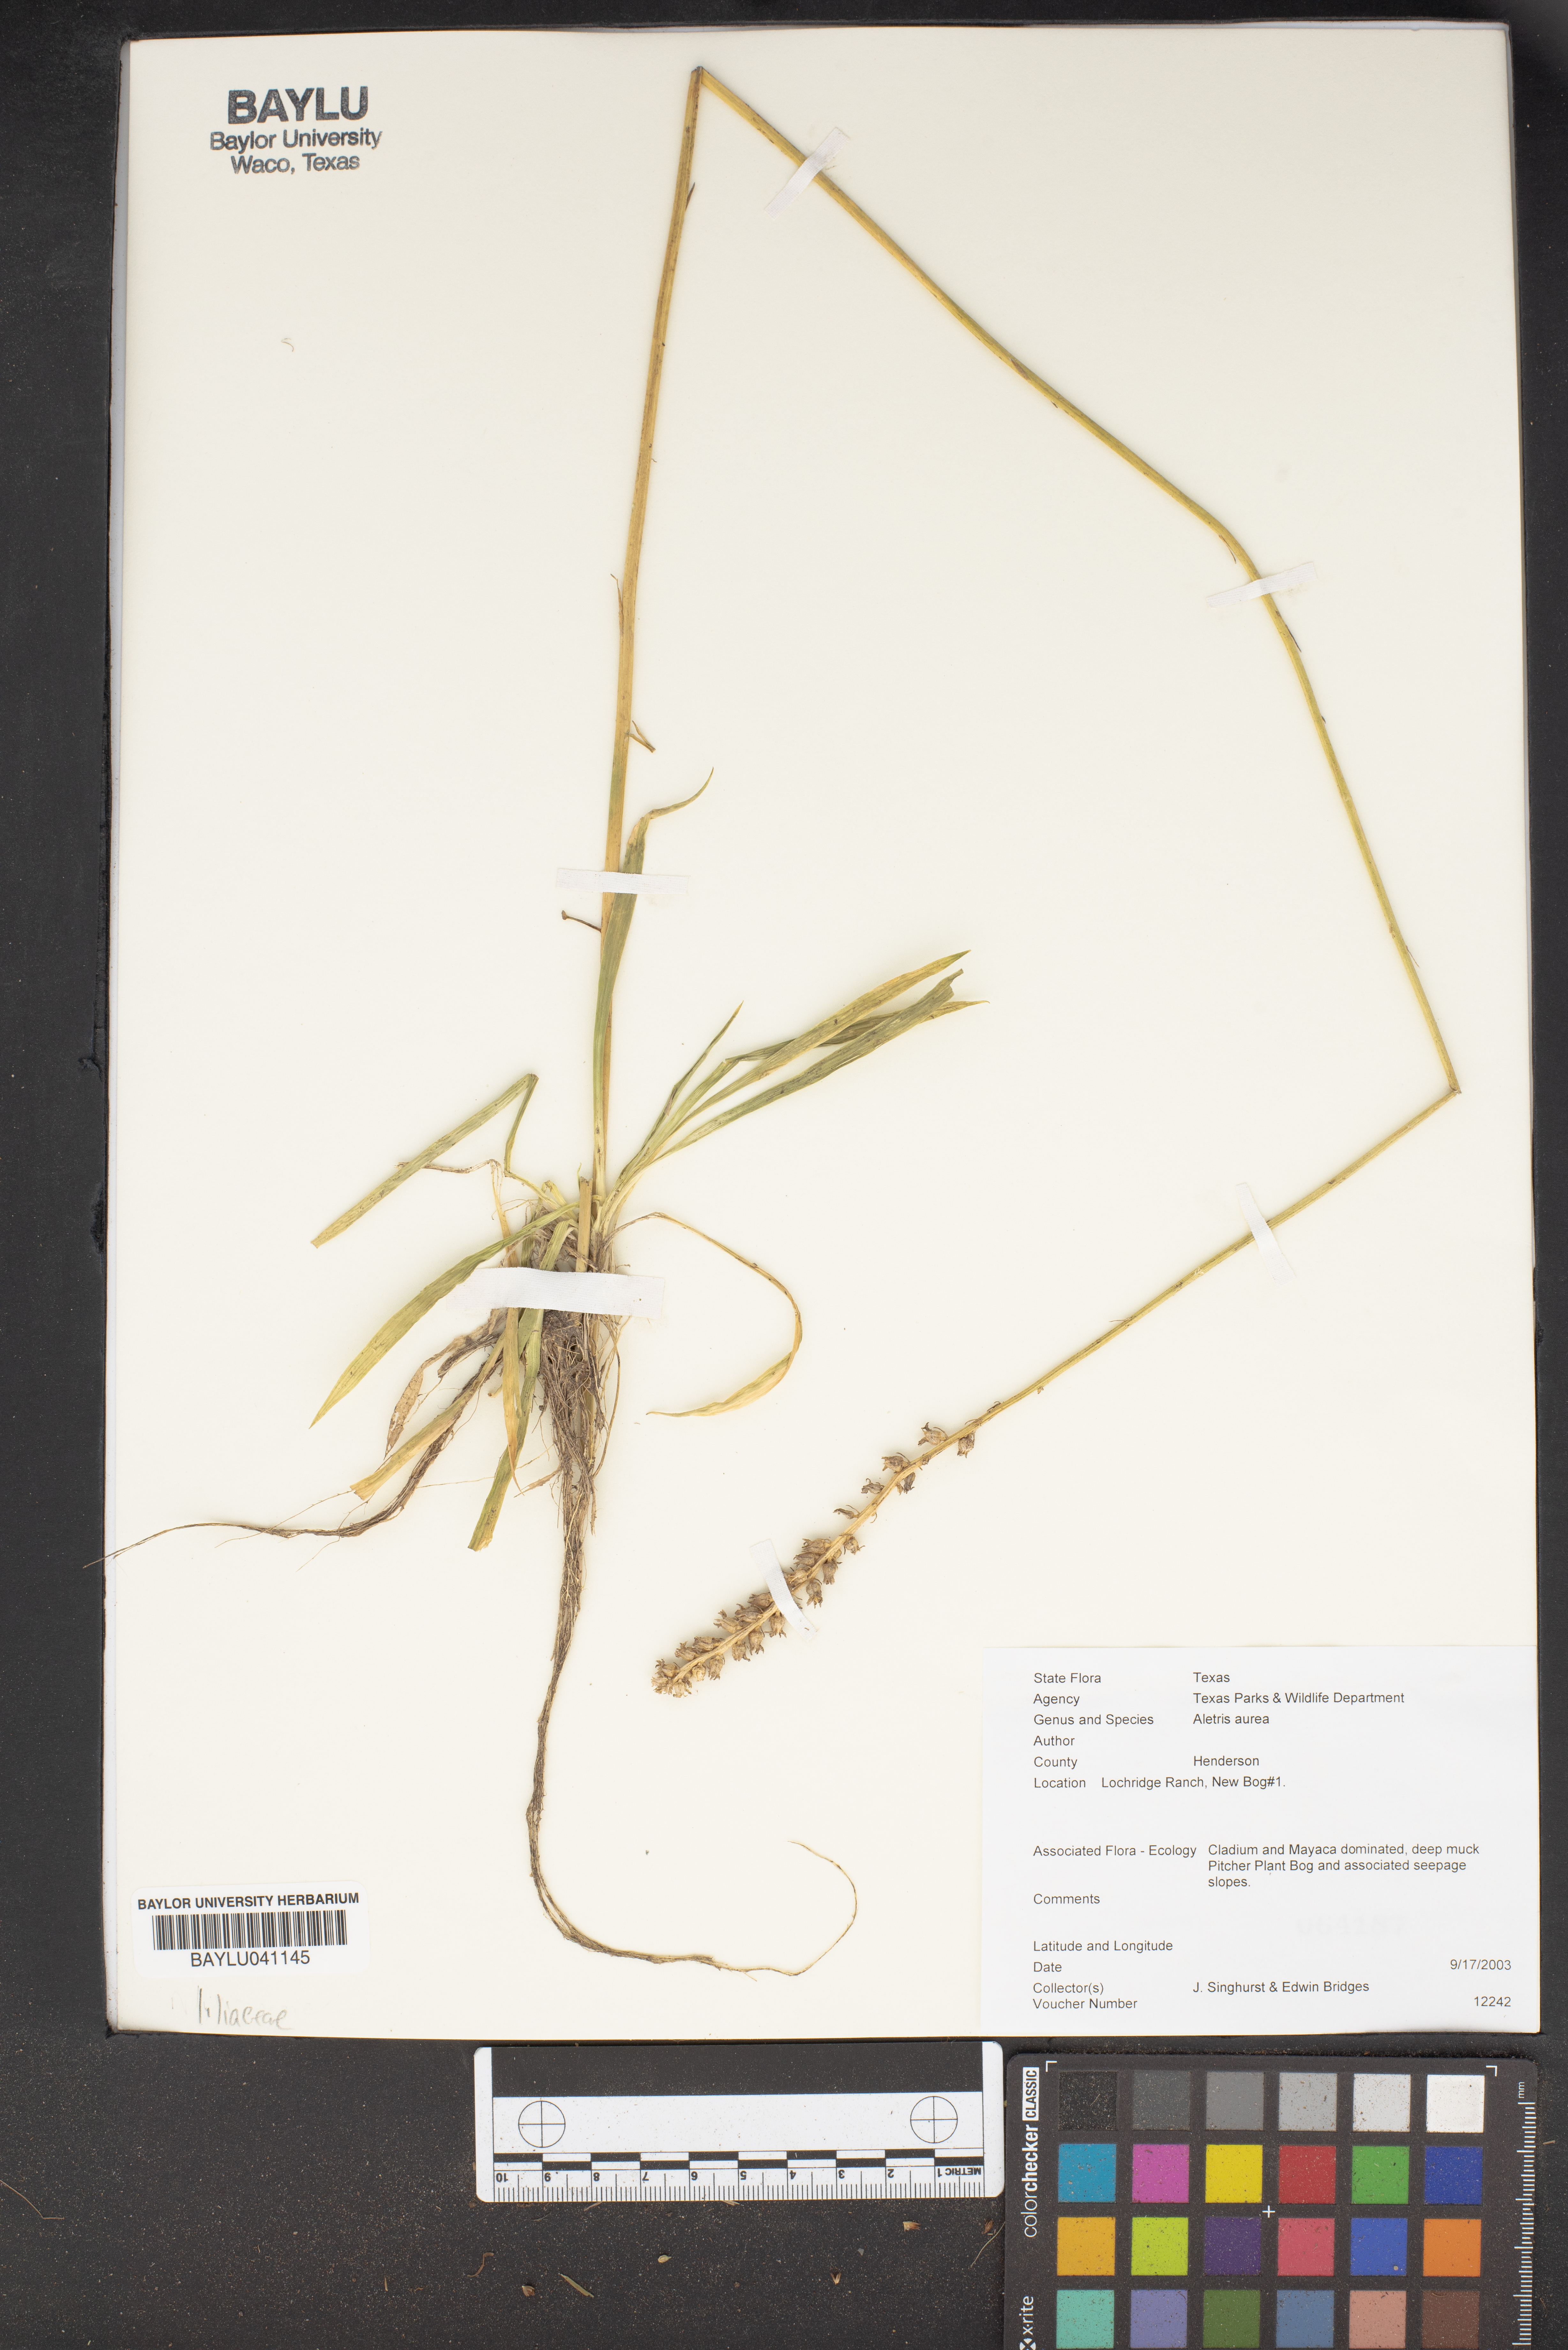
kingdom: Plantae
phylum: Tracheophyta
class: Liliopsida
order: Dioscoreales
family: Nartheciaceae
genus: Aletris
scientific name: Aletris aurea
